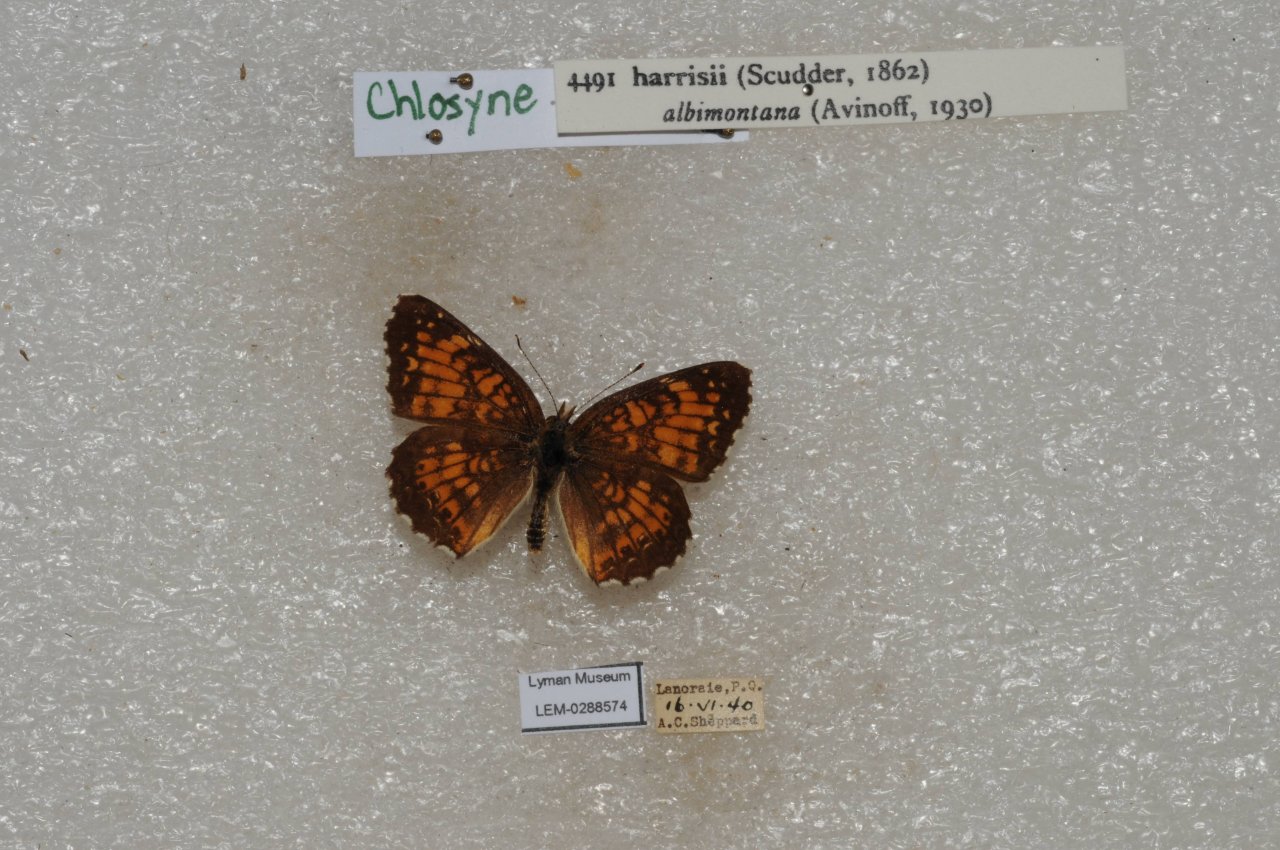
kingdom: Animalia
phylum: Arthropoda
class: Insecta
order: Lepidoptera
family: Nymphalidae
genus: Chlosyne
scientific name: Chlosyne harrisii
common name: Harris's Checkerspot
